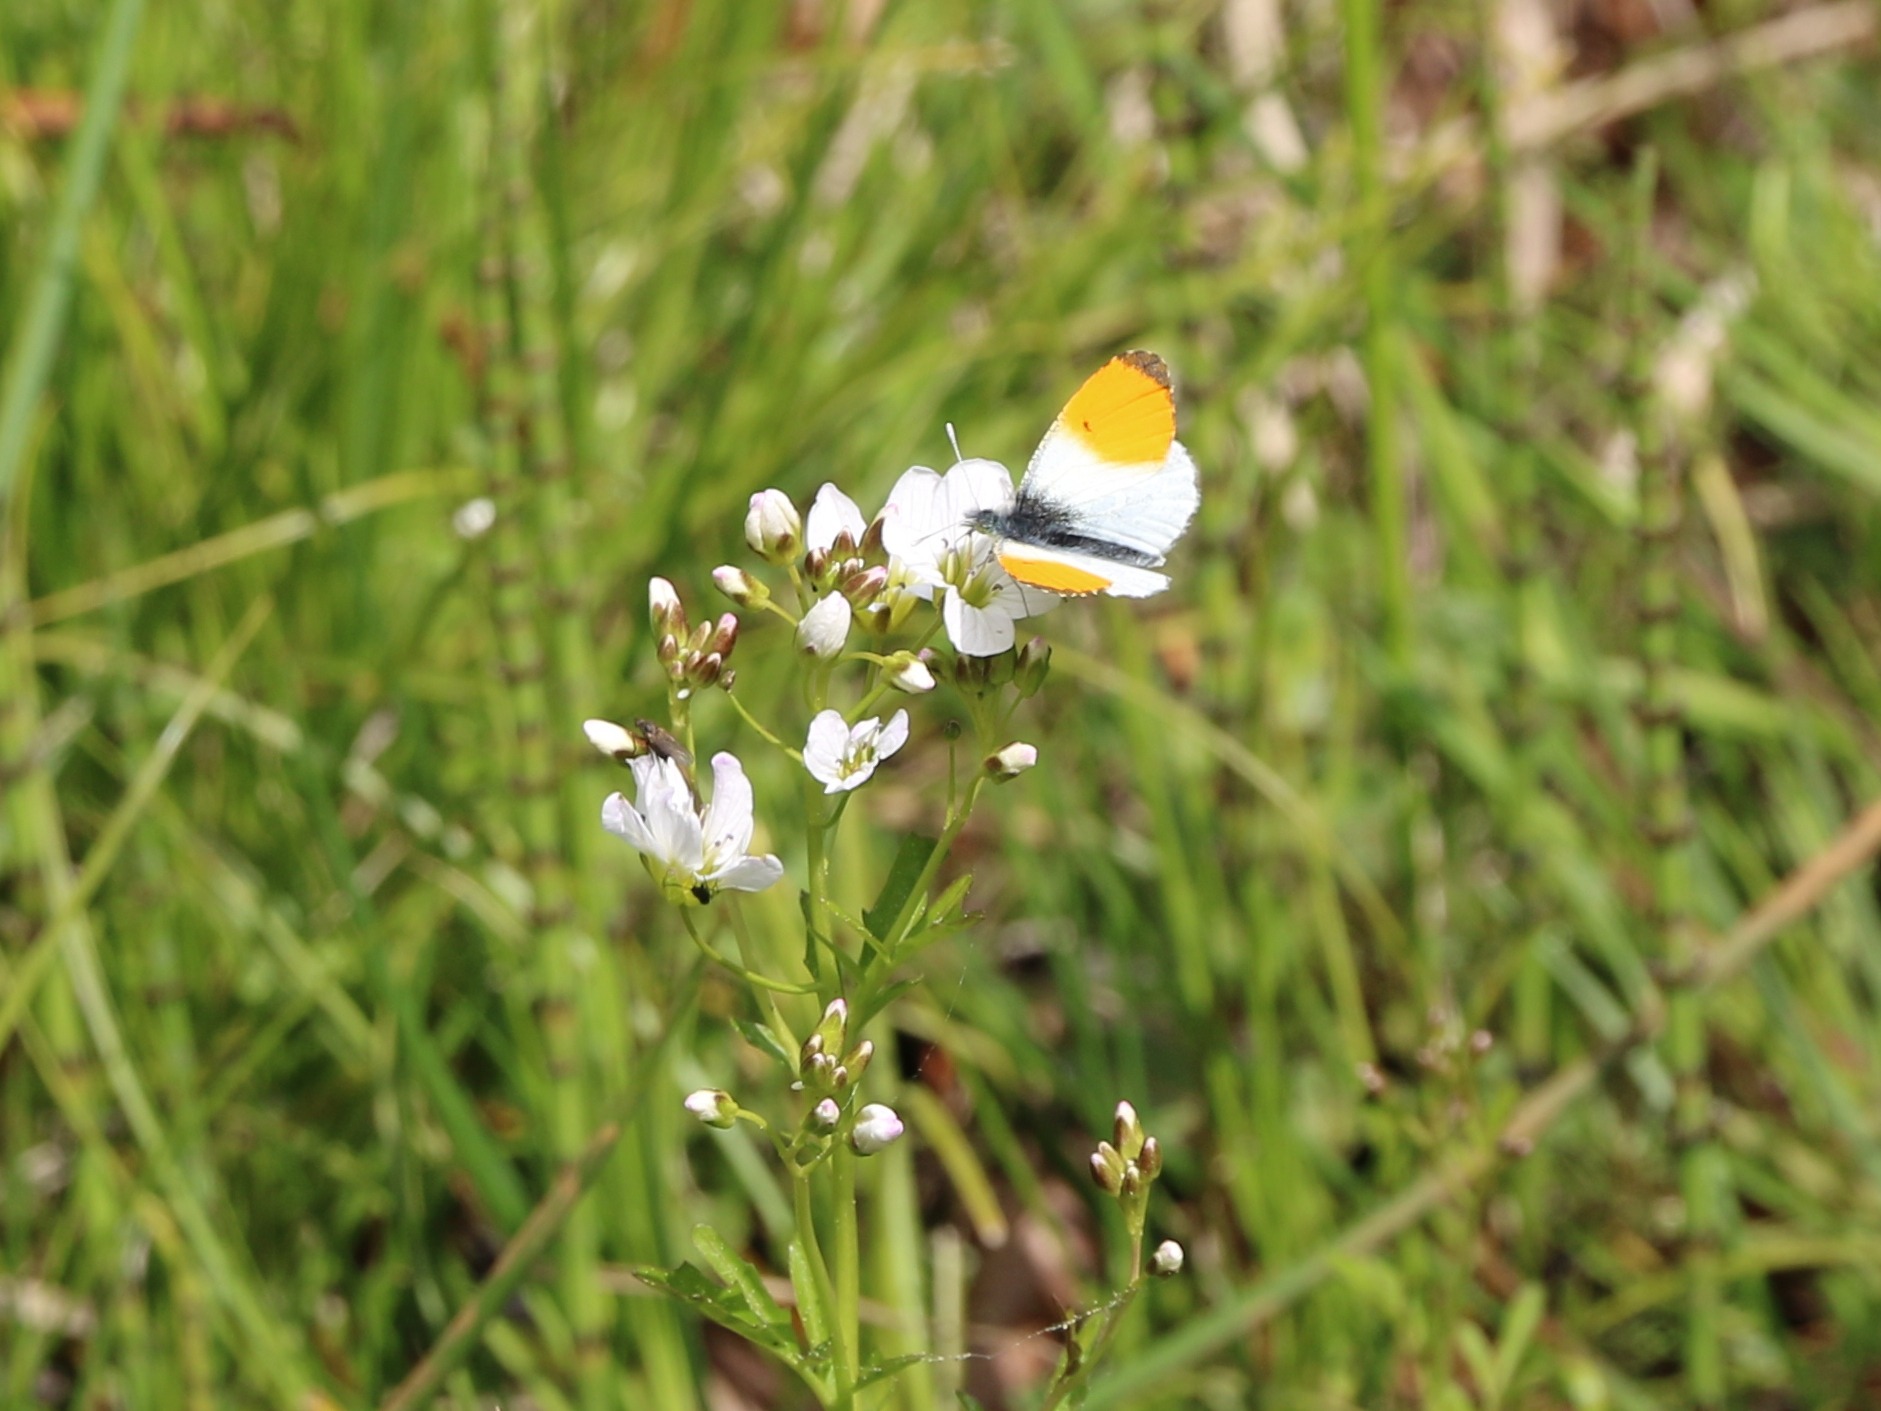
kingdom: Animalia
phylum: Arthropoda
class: Insecta
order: Lepidoptera
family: Pieridae
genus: Anthocharis
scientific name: Anthocharis cardamines
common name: Aurora
